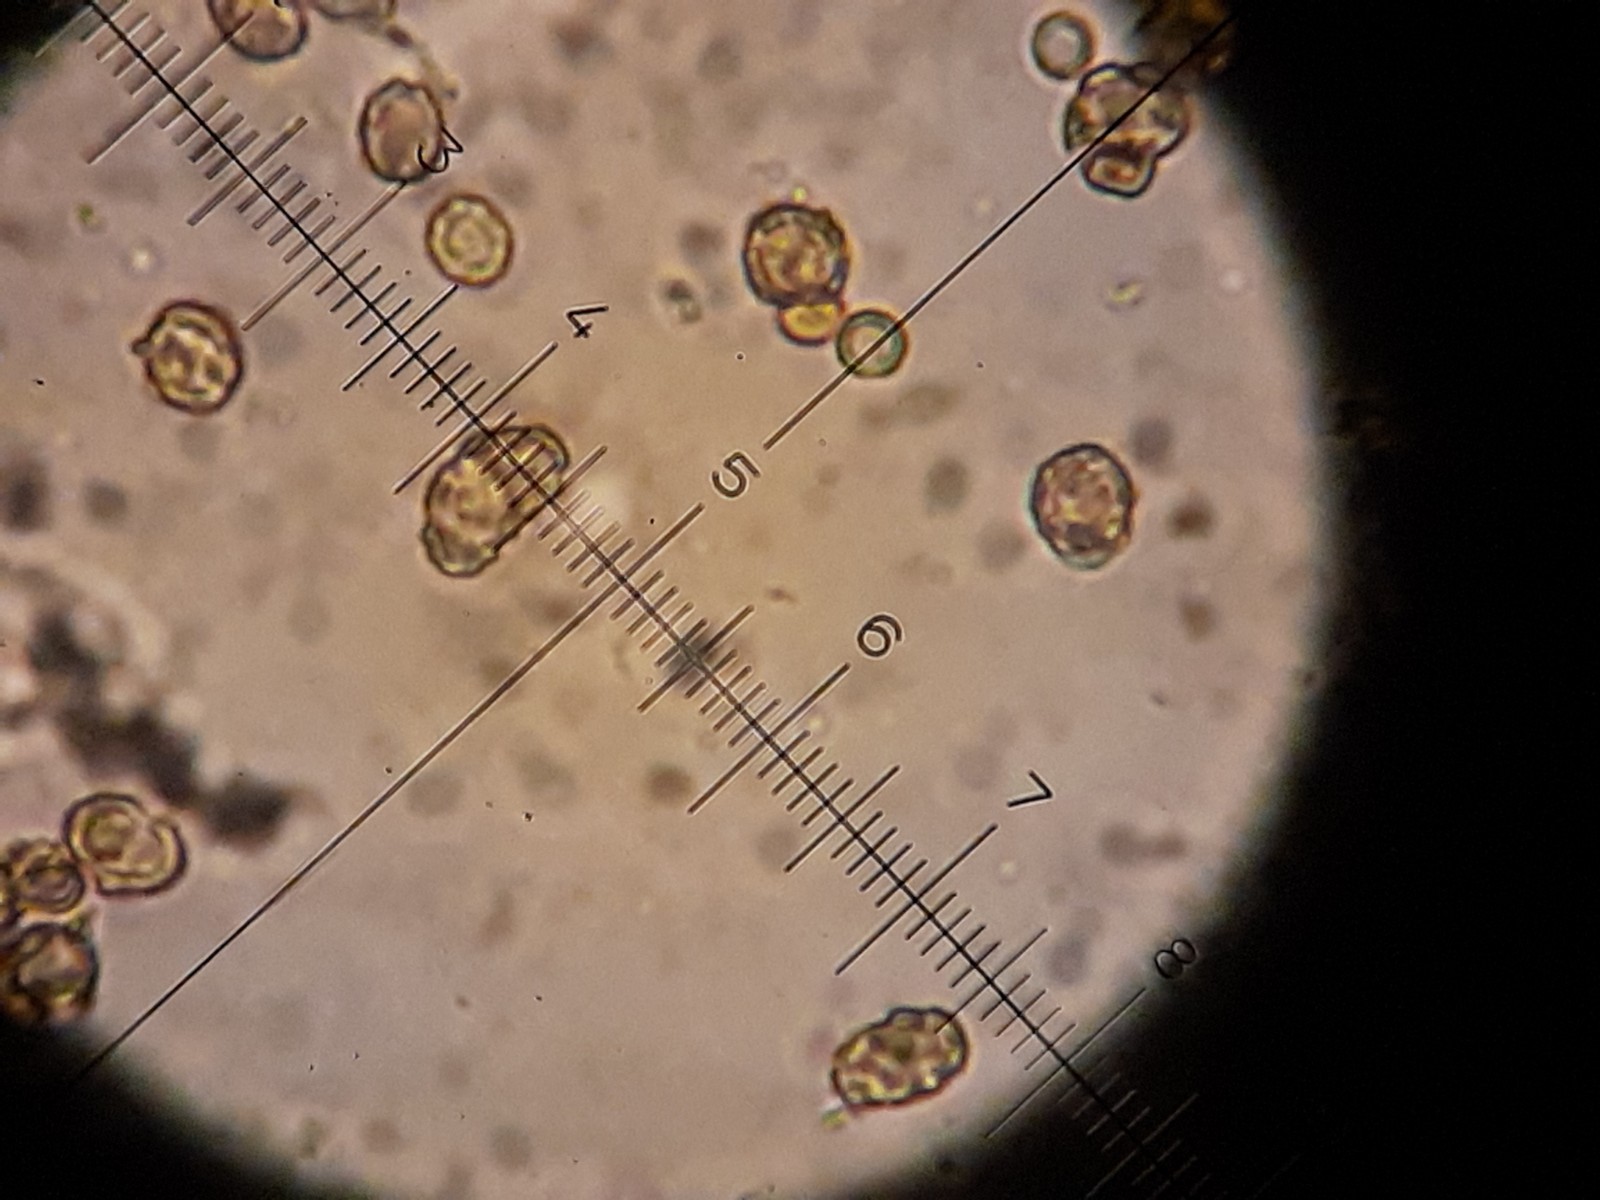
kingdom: Fungi
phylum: Ascomycota
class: Coniocybomycetes
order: Coniocybales
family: Coniocybaceae
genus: Chaenotheca
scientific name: Chaenotheca chlorella
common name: grønlig knappenålslav
